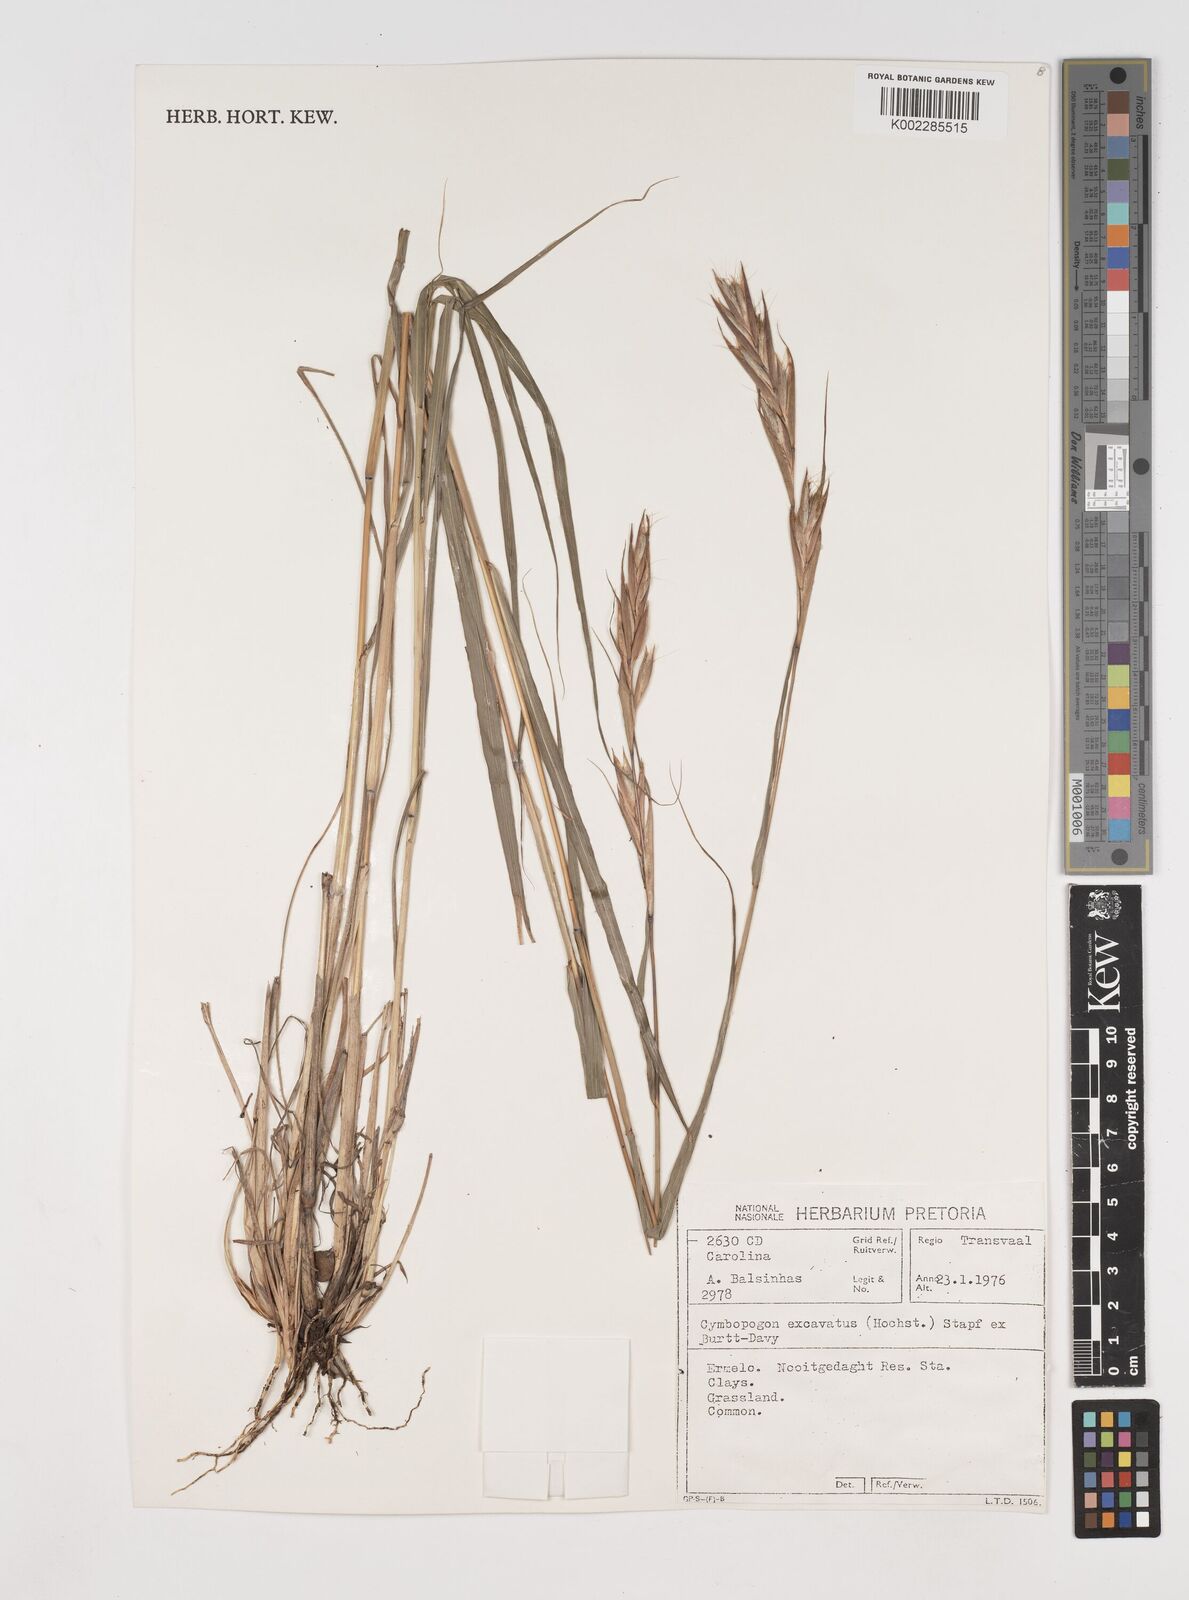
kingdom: Plantae
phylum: Tracheophyta
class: Liliopsida
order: Poales
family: Poaceae
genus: Cymbopogon
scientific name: Cymbopogon caesius
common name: Kachi grass
